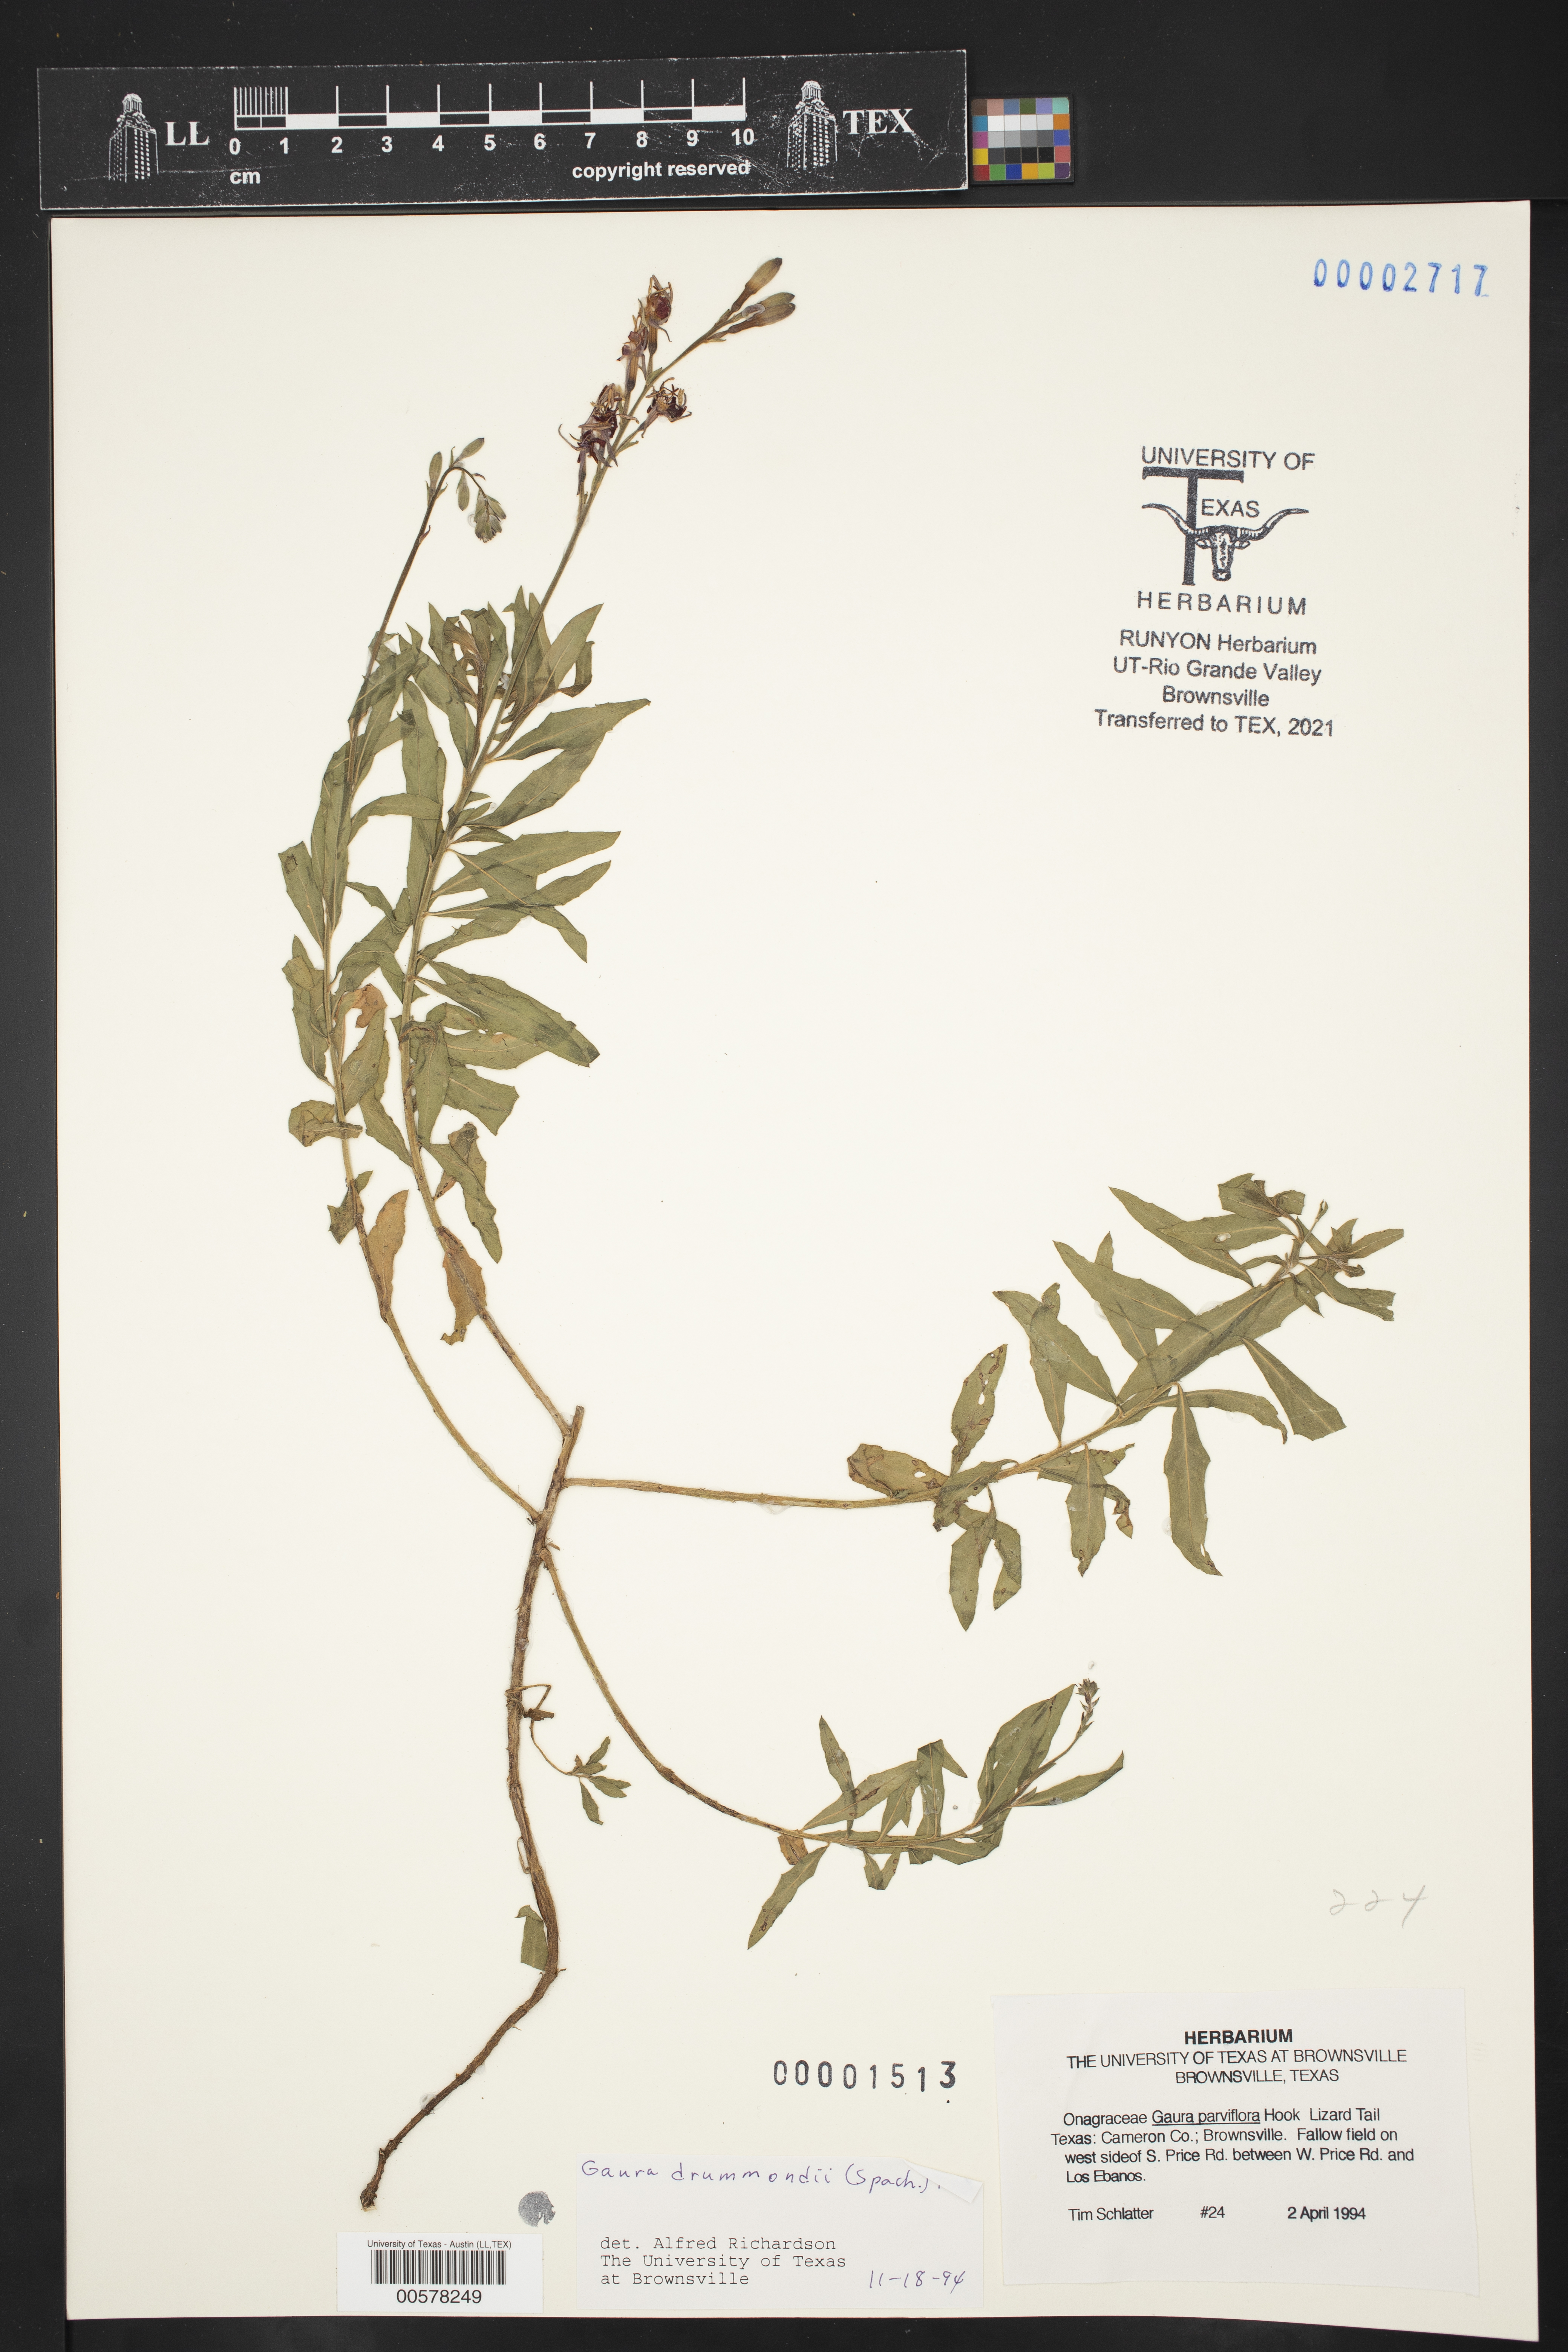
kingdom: Plantae
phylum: Tracheophyta
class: Magnoliopsida
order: Myrtales
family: Onagraceae
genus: Oenothera
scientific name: Oenothera curtiflora
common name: Velvetweed
